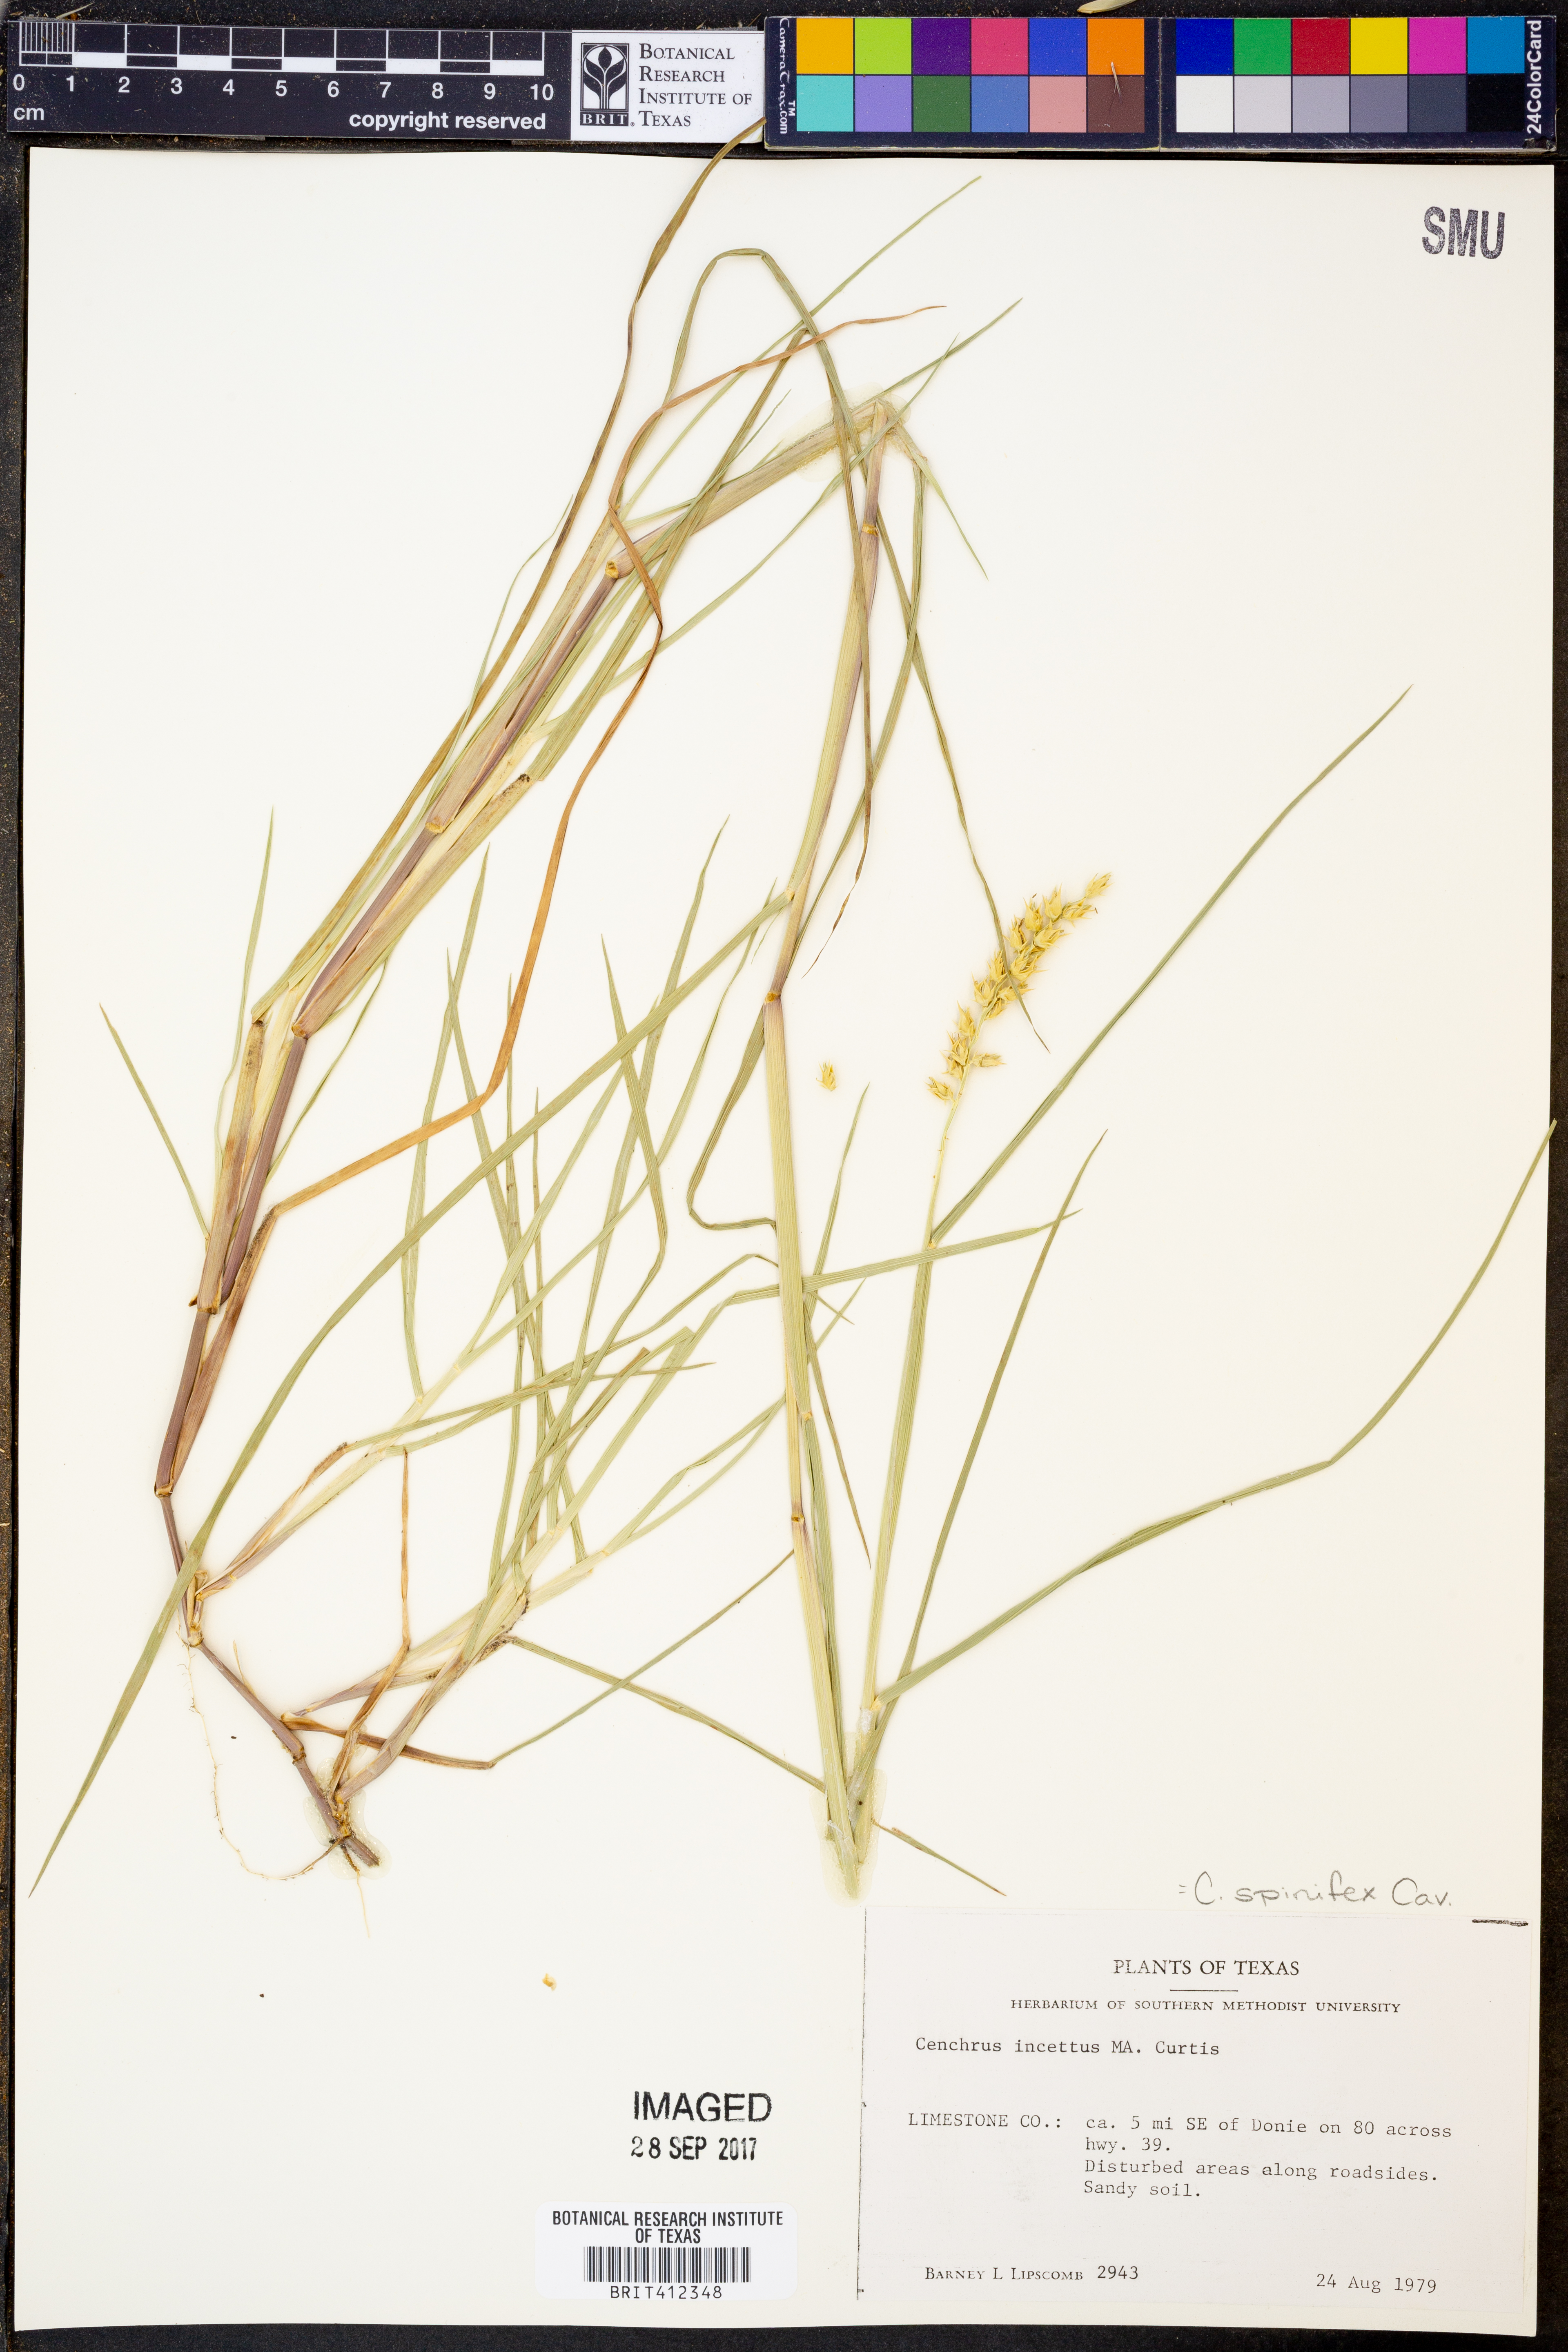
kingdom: Plantae
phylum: Tracheophyta
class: Liliopsida
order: Poales
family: Poaceae
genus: Cenchrus
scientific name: Cenchrus spinifex
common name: Coast sandbur
